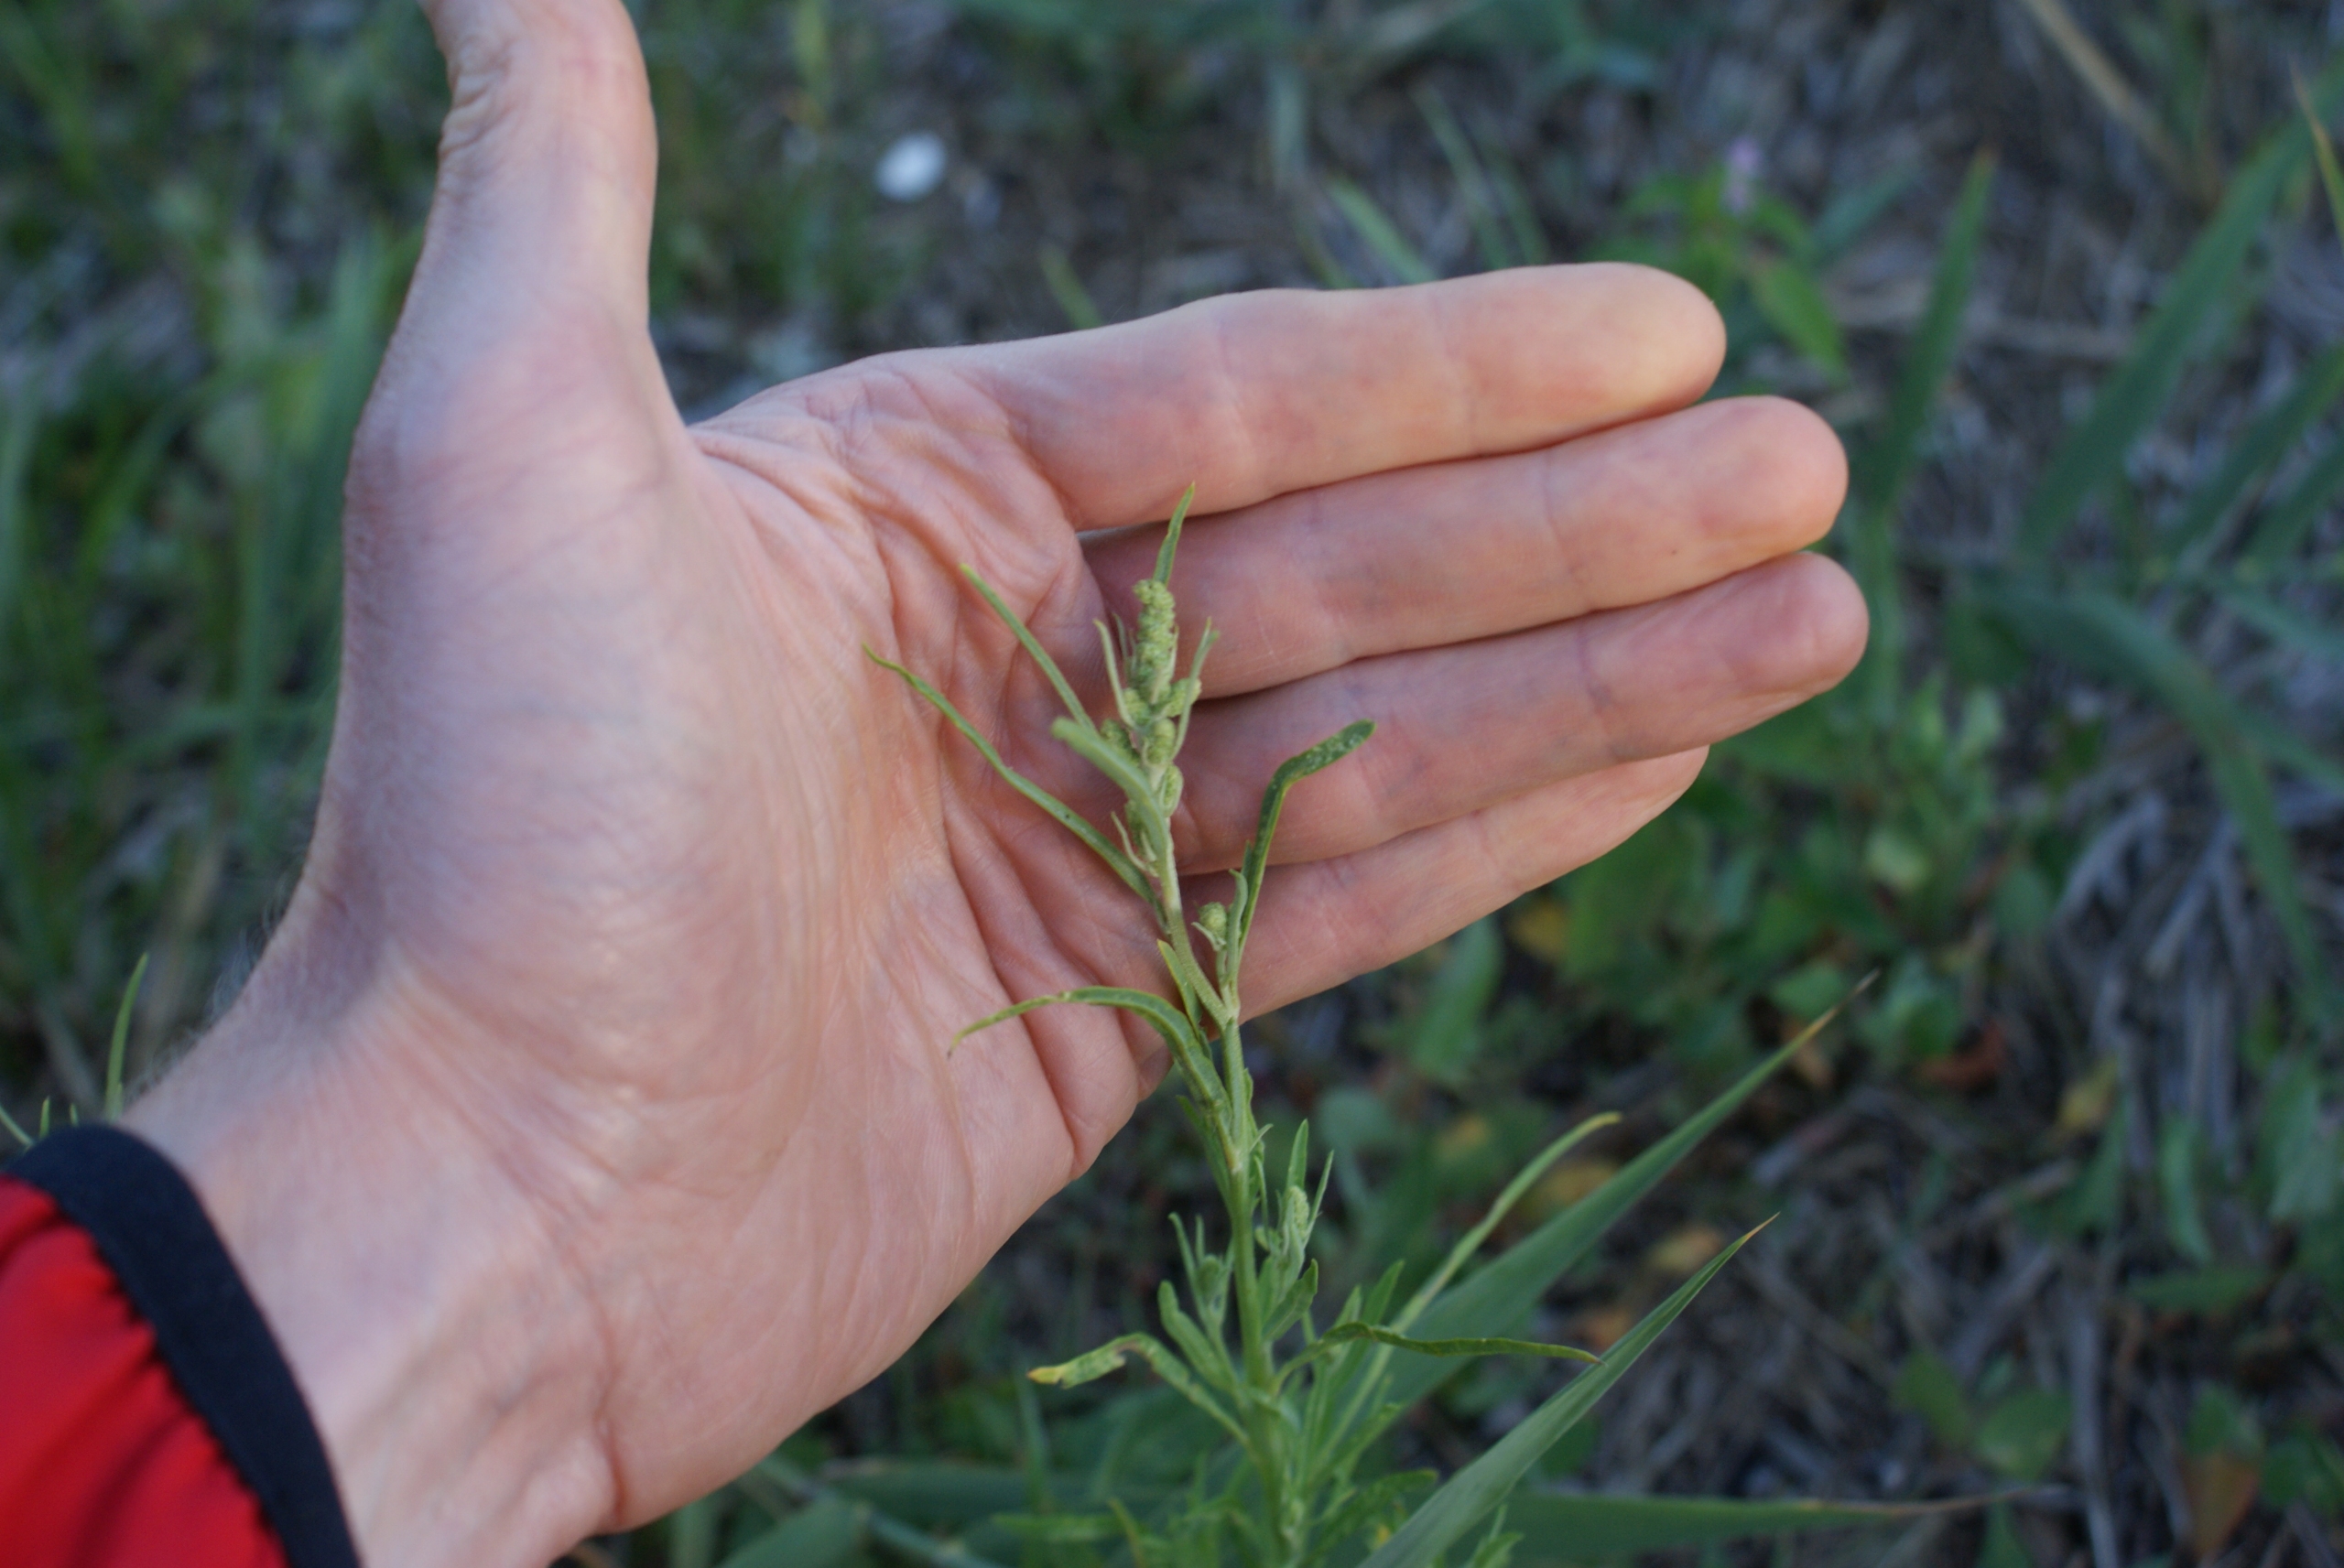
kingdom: Plantae
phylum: Tracheophyta
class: Magnoliopsida
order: Caryophyllales
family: Amaranthaceae
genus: Atriplex
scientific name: Atriplex littoralis
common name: Strand-mælde
